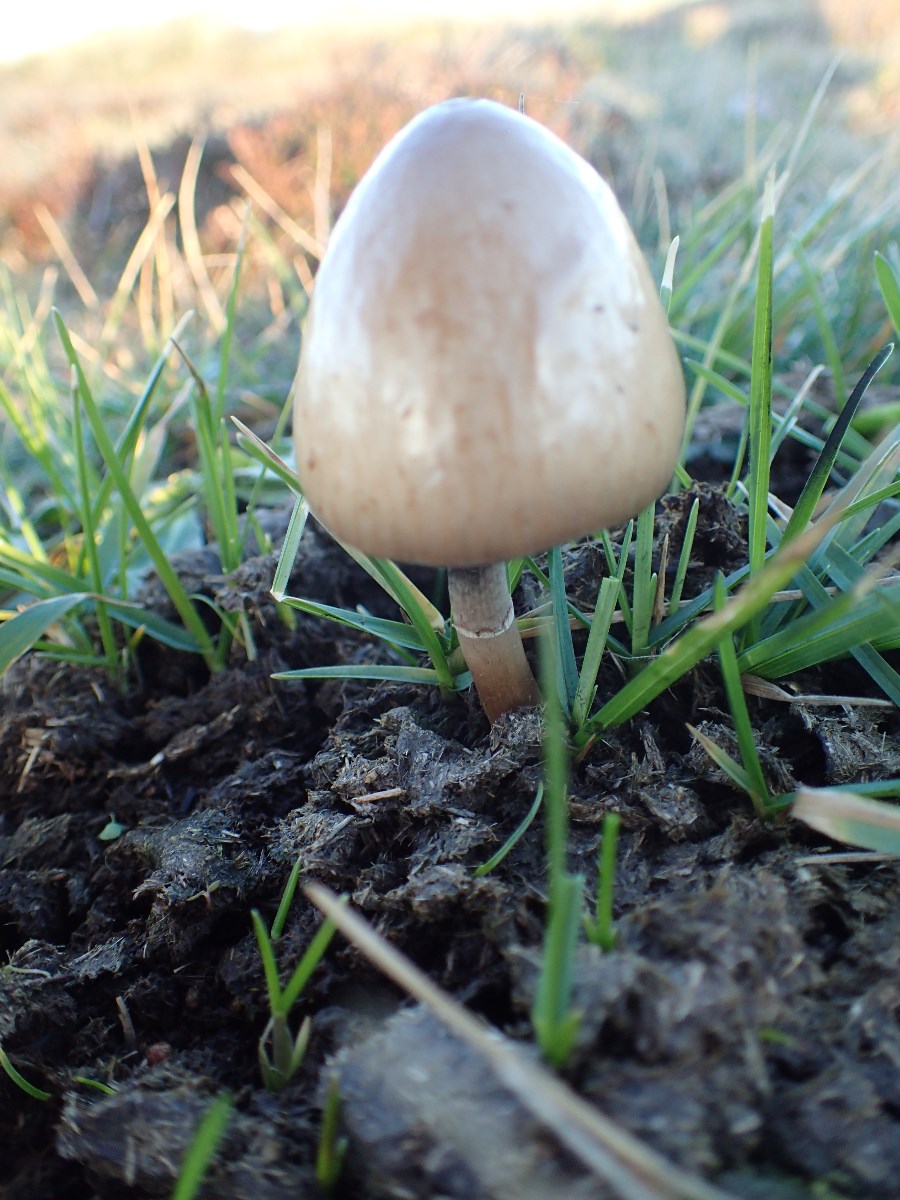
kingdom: Fungi
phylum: Basidiomycota
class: Agaricomycetes
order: Agaricales
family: Bolbitiaceae
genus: Panaeolus
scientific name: Panaeolus semiovatus
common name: ring-glanshat
